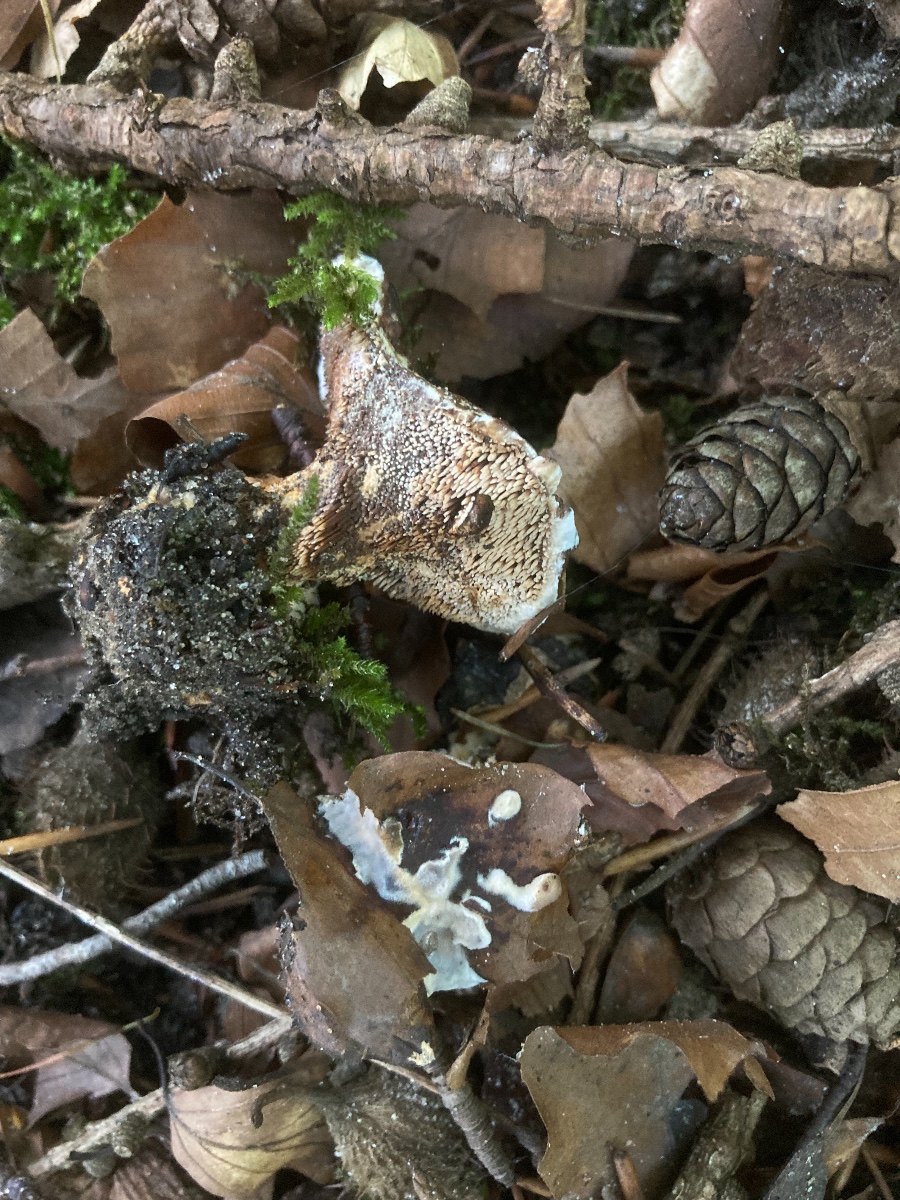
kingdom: Fungi
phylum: Basidiomycota
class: Agaricomycetes
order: Thelephorales
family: Bankeraceae
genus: Hydnellum
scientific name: Hydnellum
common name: korkpigsvamp
